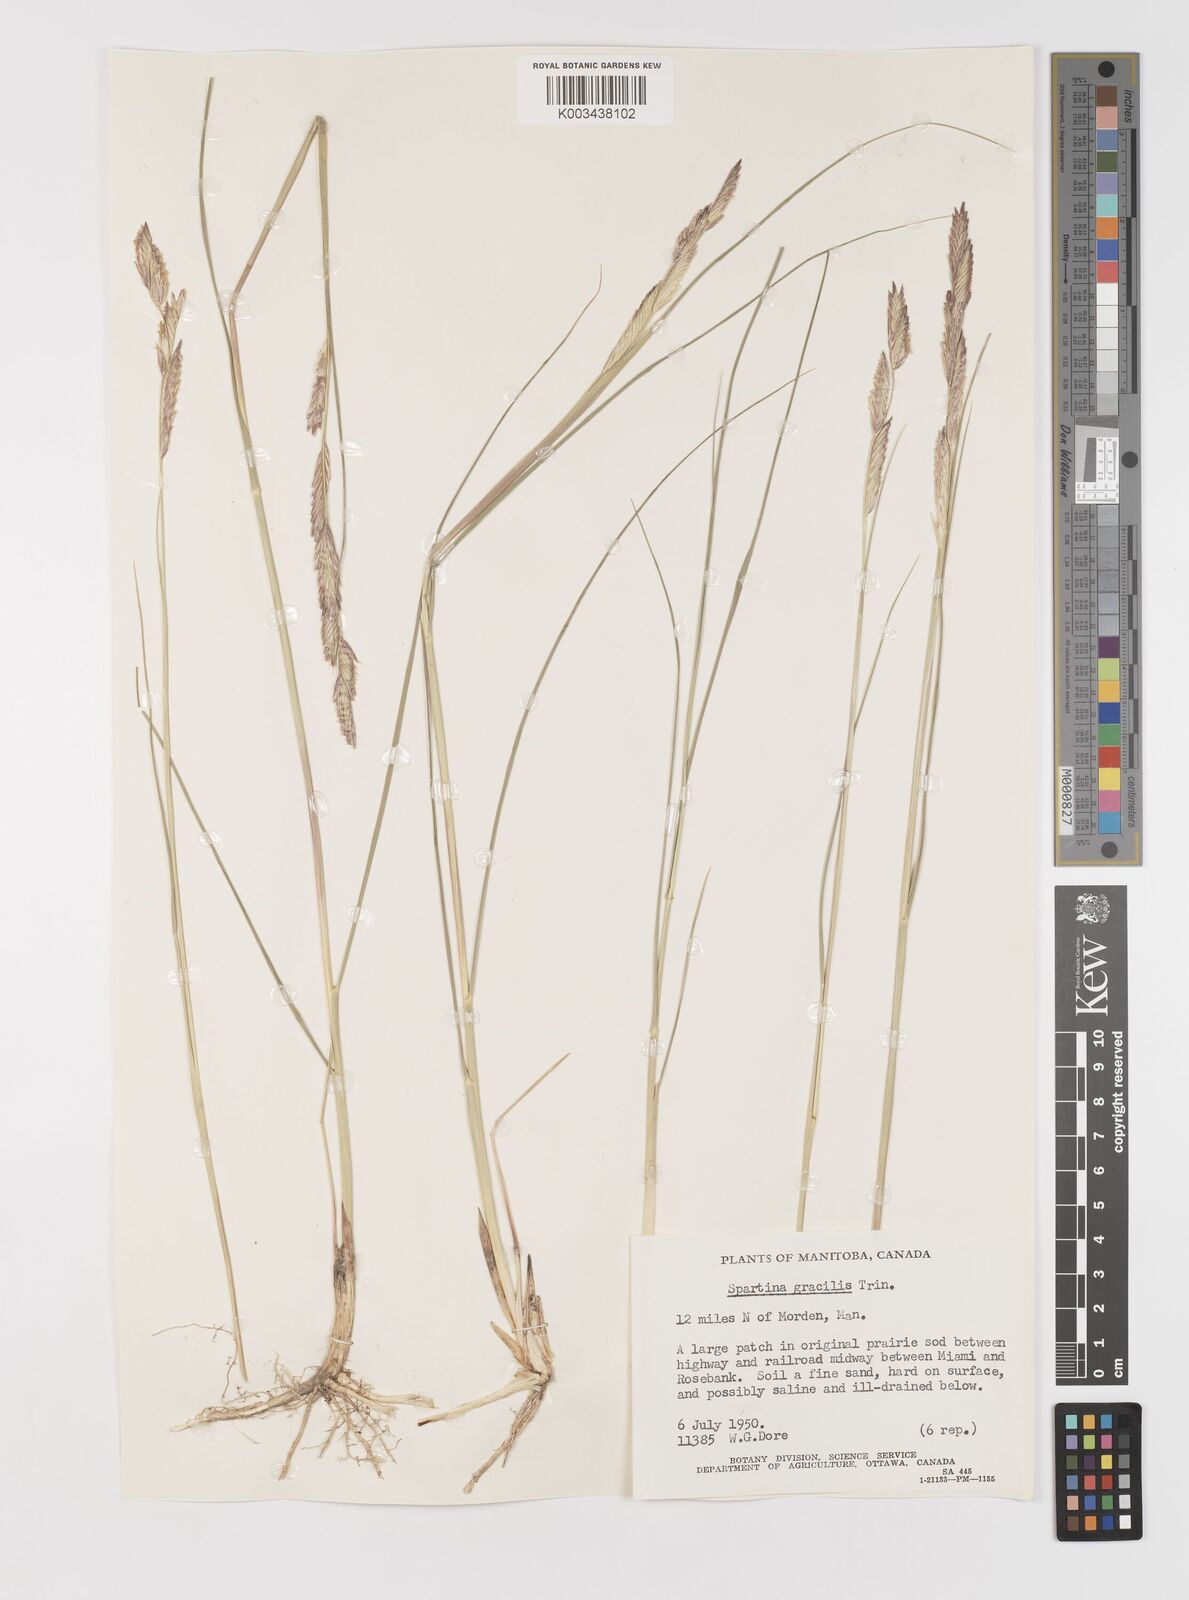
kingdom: Plantae
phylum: Tracheophyta
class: Liliopsida
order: Poales
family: Poaceae
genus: Sporobolus
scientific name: Sporobolus hookerianus
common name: Alkali cordgrass
